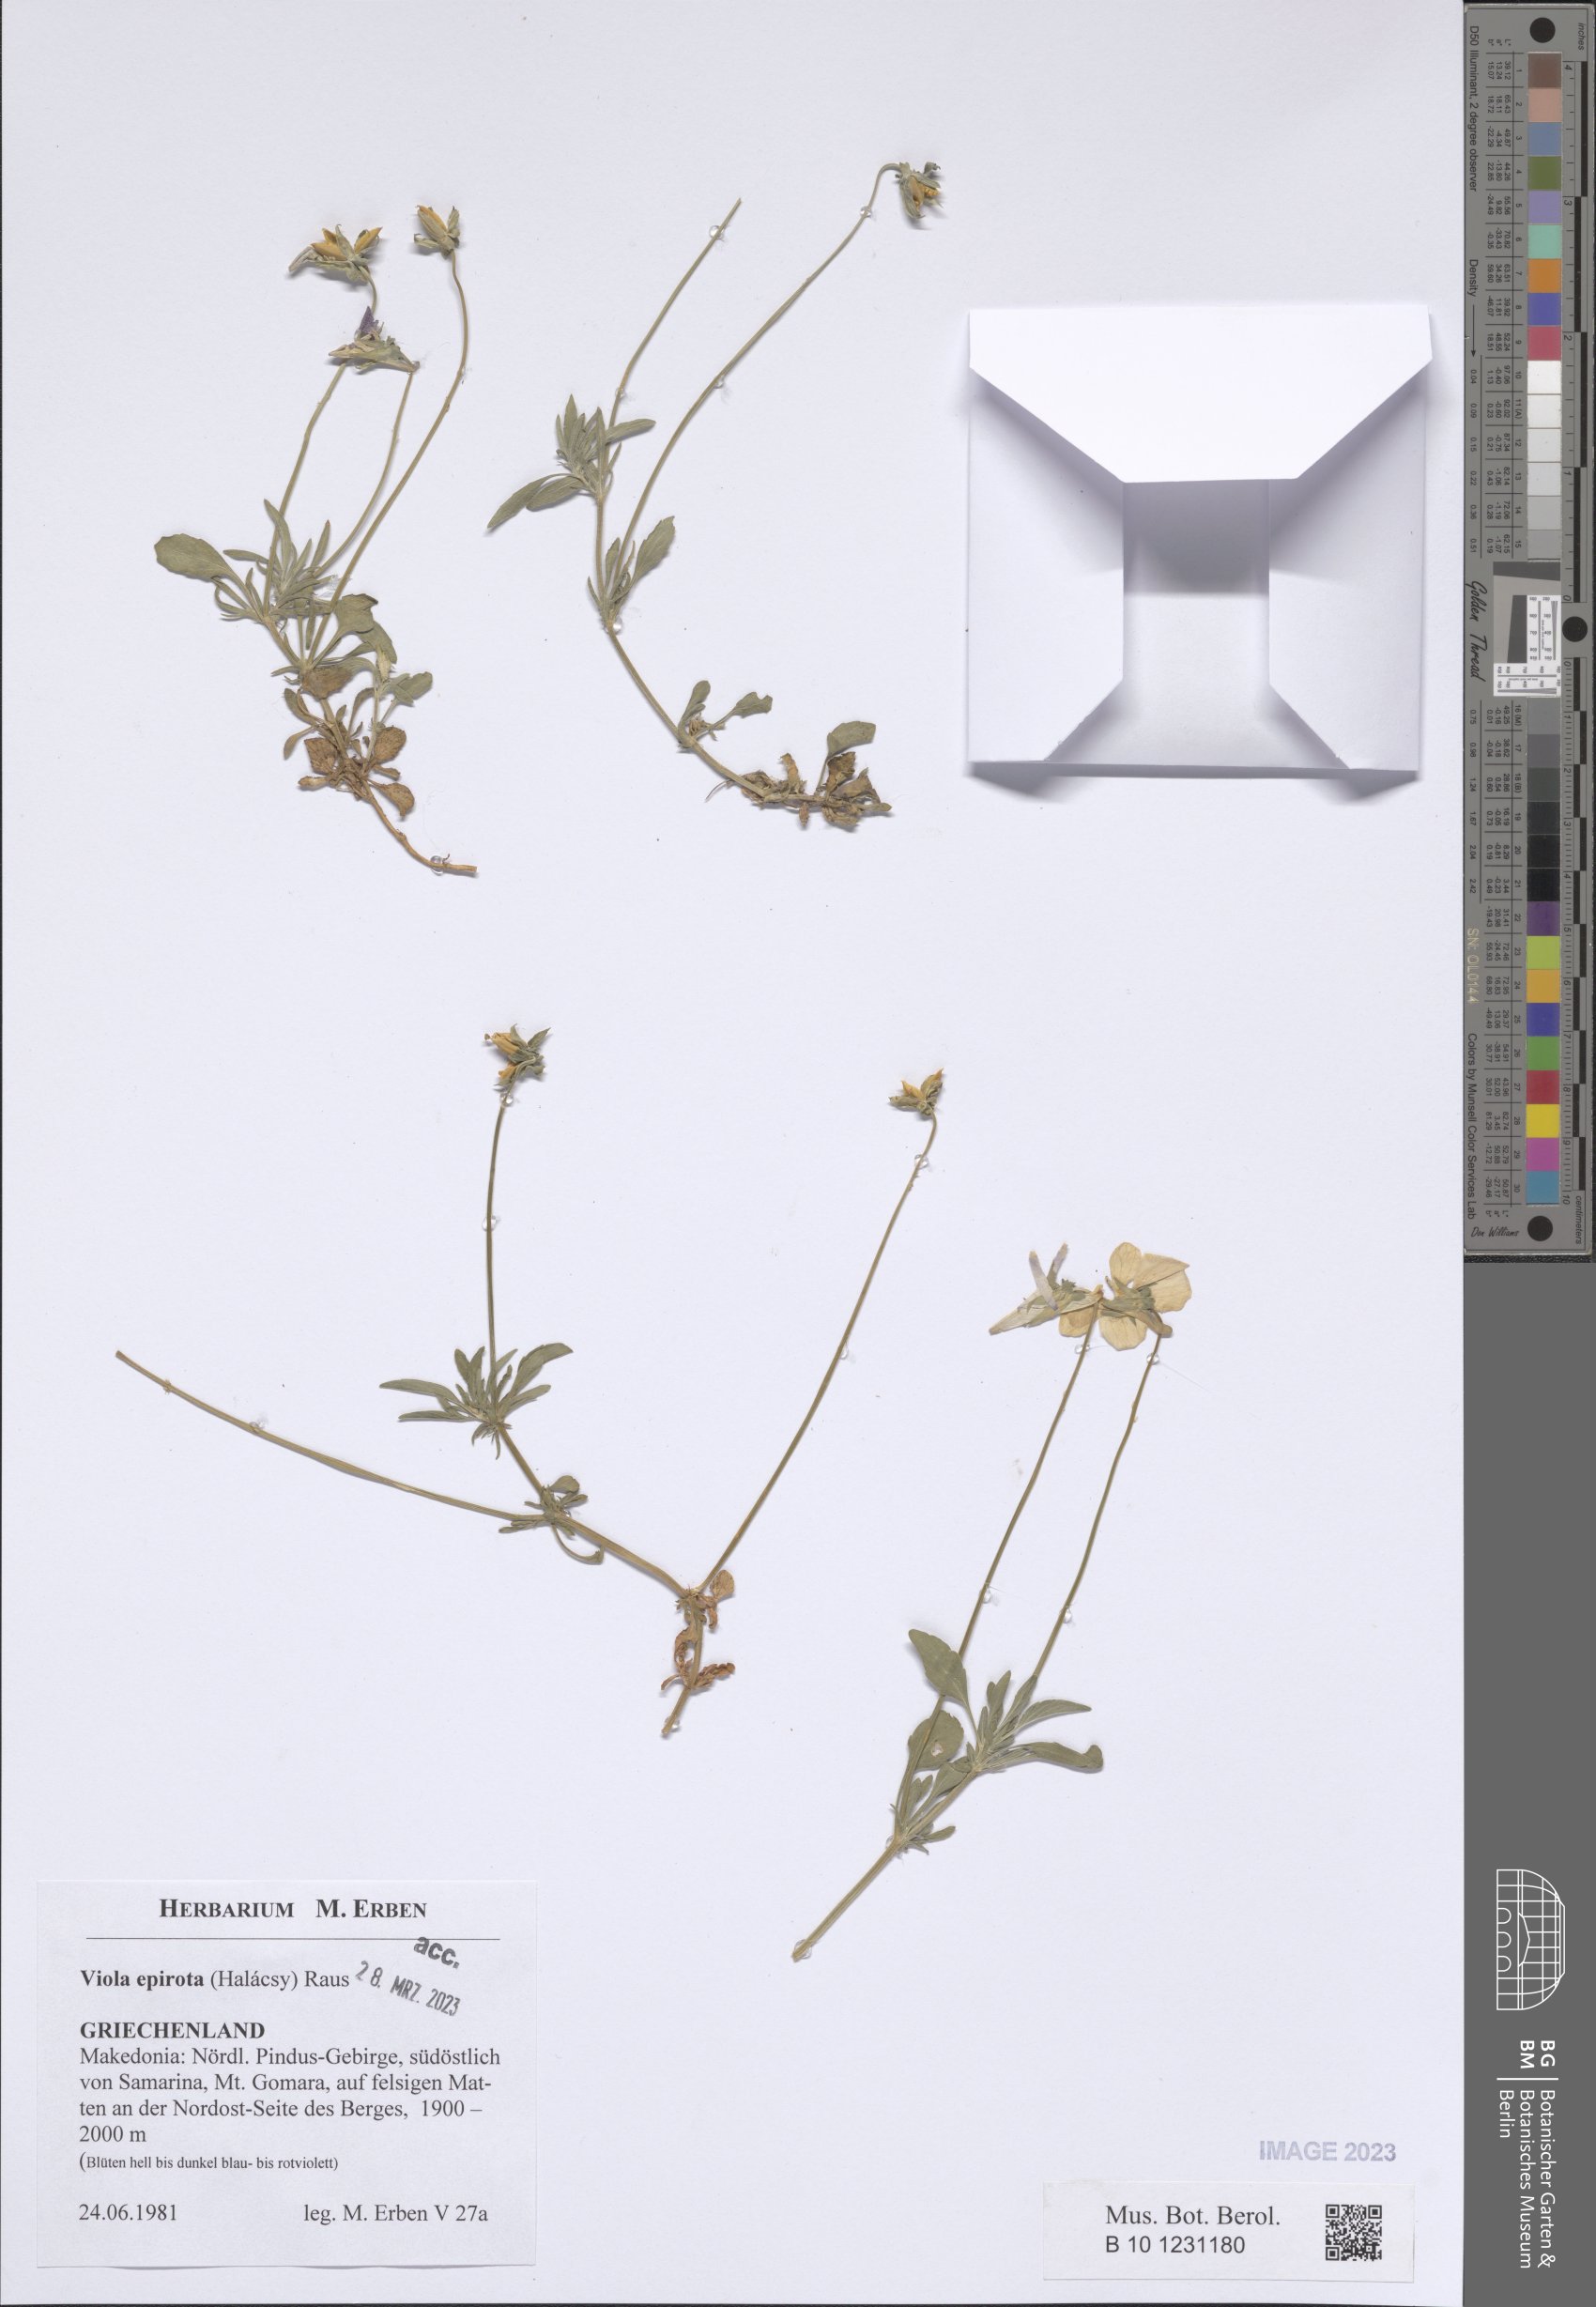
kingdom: Plantae
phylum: Tracheophyta
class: Magnoliopsida
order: Malpighiales
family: Violaceae
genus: Viola
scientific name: Viola epirota
